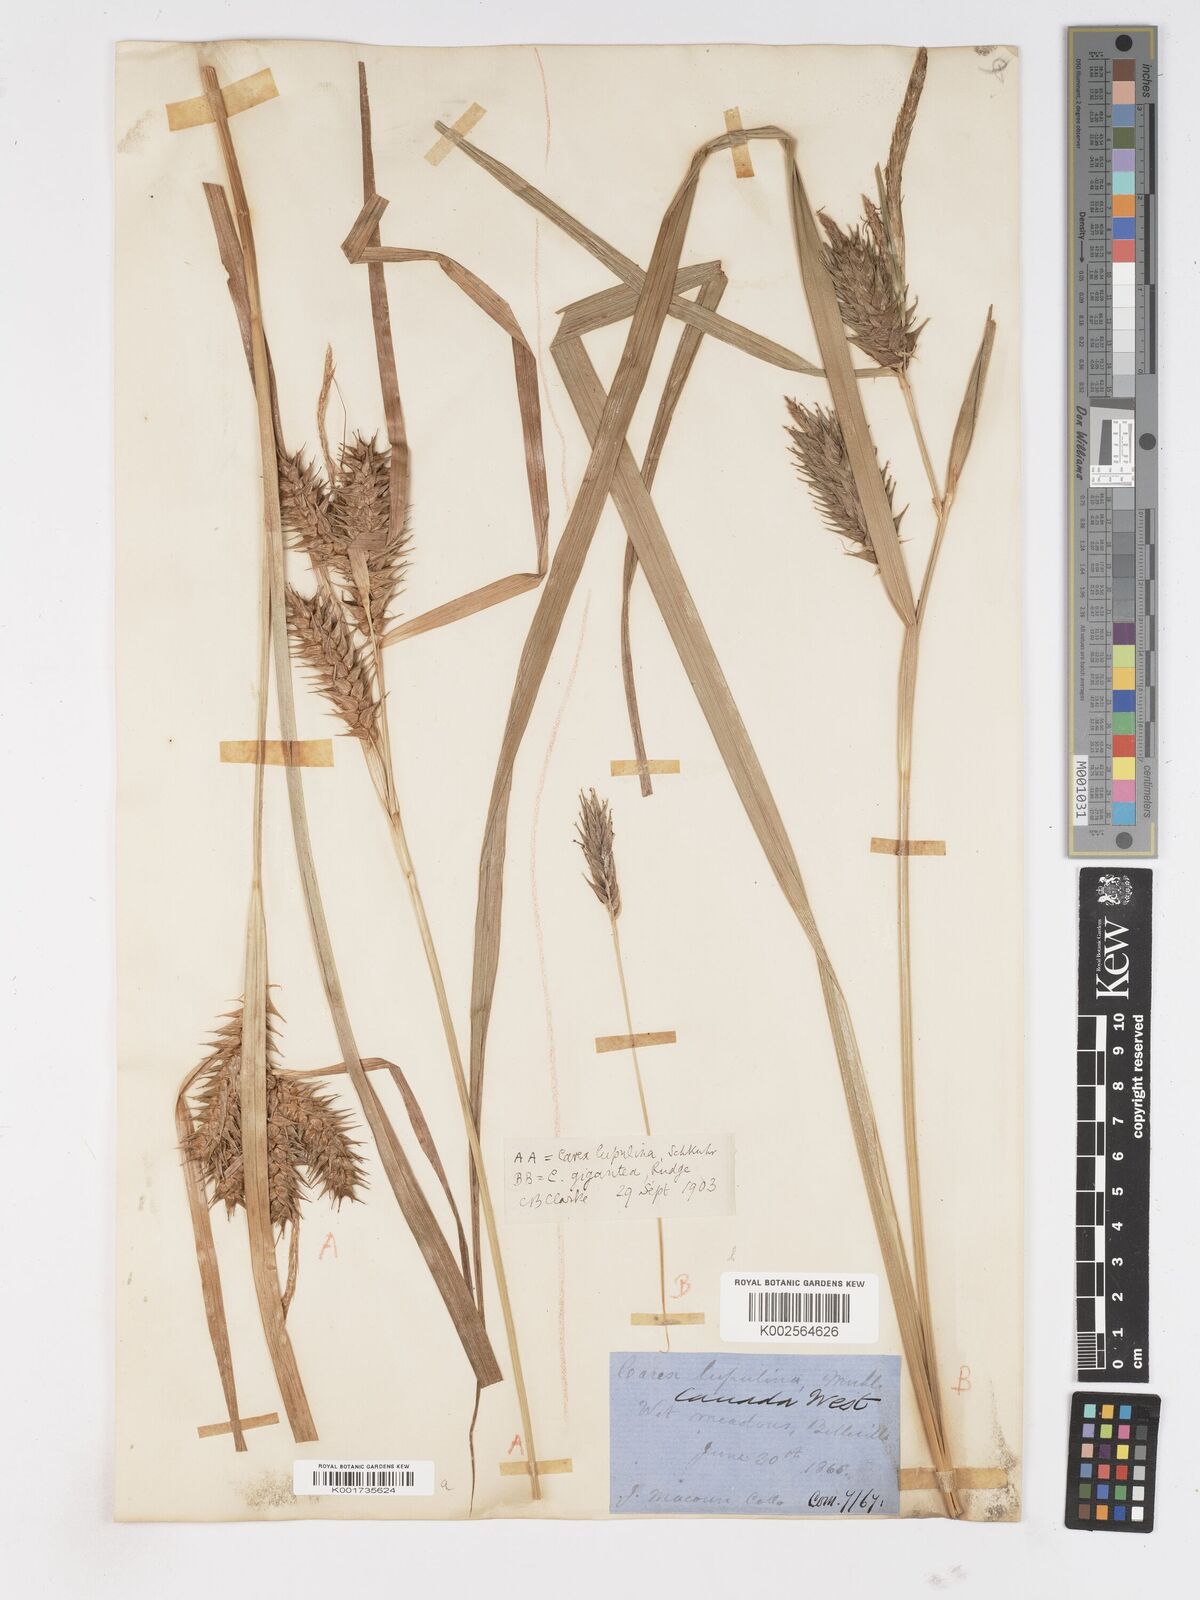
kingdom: Plantae
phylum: Tracheophyta
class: Liliopsida
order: Poales
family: Cyperaceae
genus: Carex
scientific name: Carex gigantea
